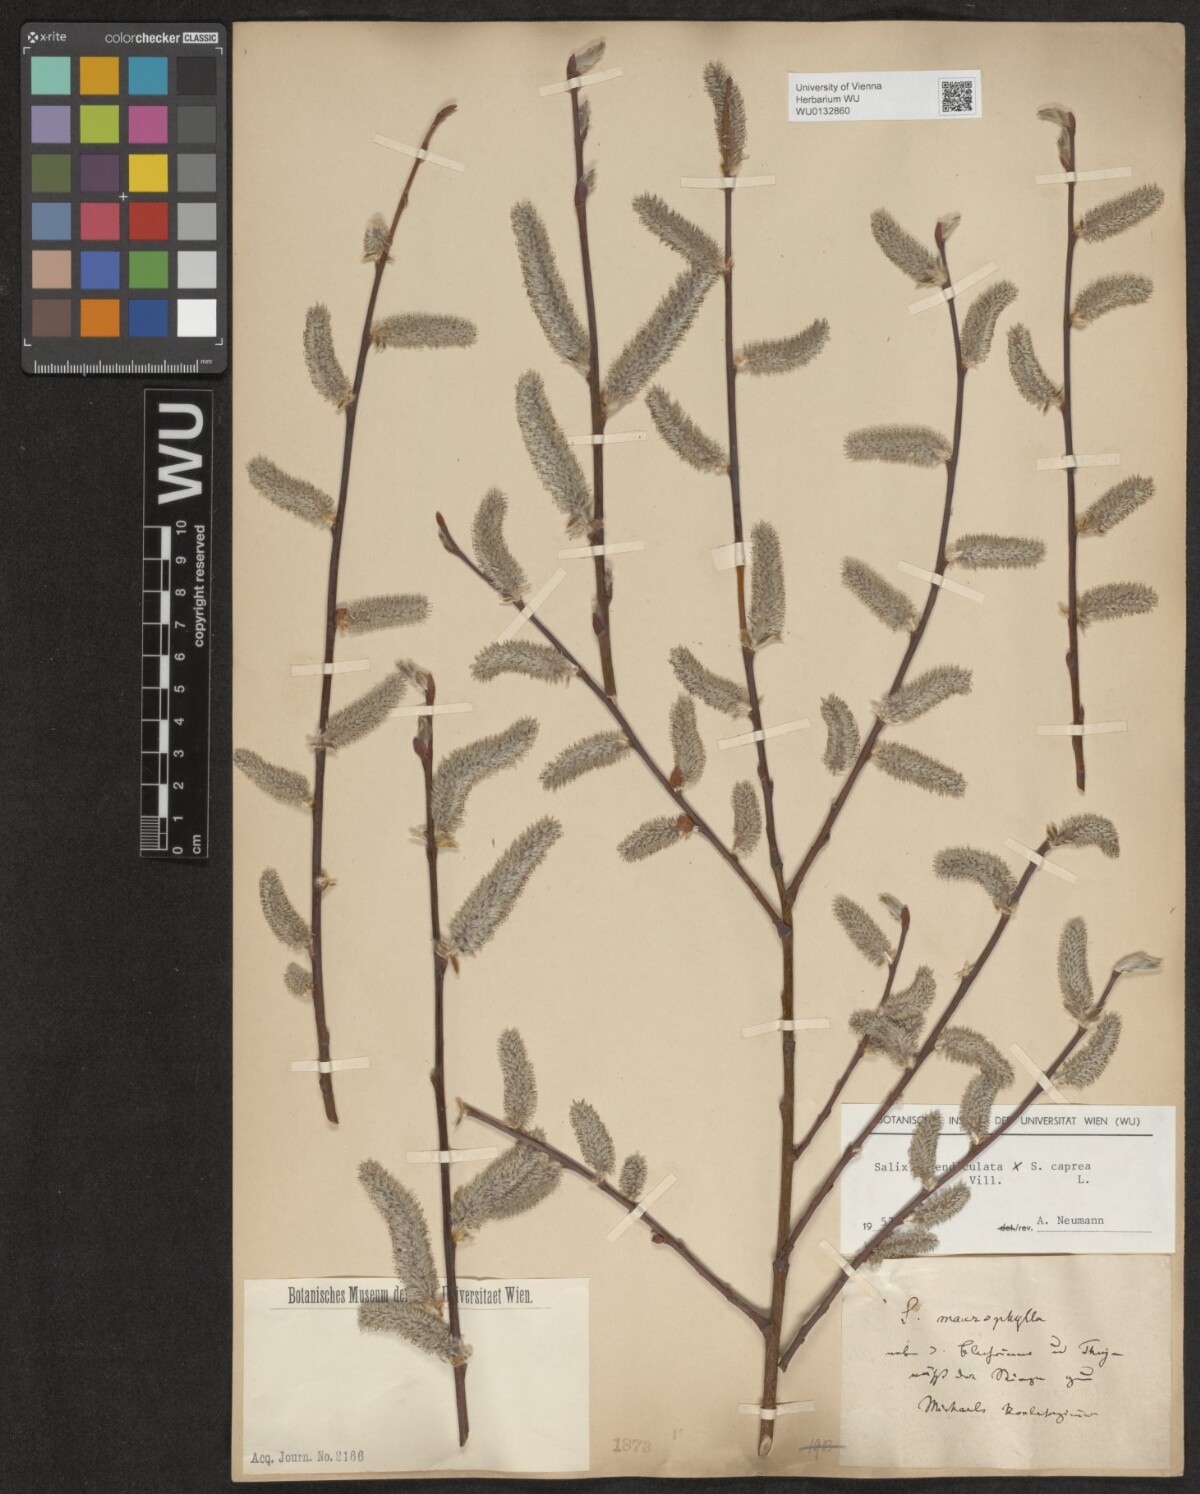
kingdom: Plantae
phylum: Tracheophyta
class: Magnoliopsida
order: Malpighiales
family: Salicaceae
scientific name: Salicaceae
